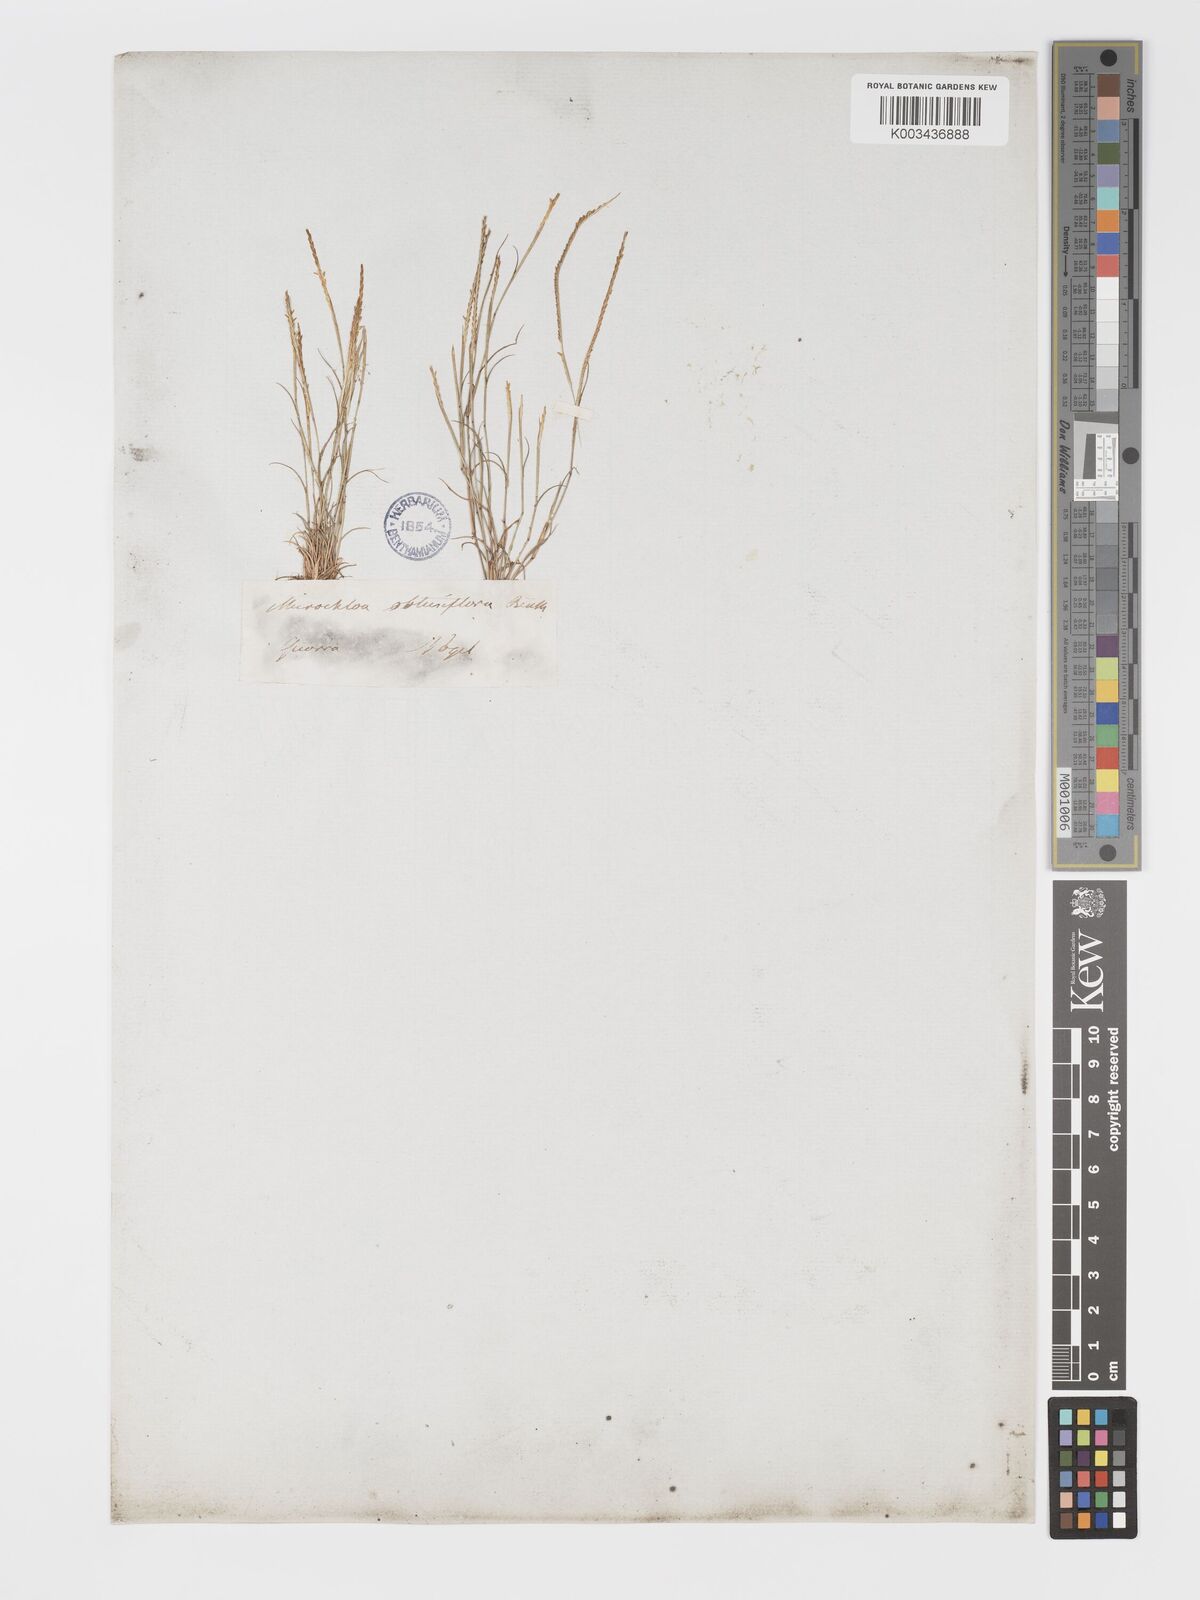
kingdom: Plantae
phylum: Tracheophyta
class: Liliopsida
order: Poales
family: Poaceae
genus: Micrachne
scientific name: Micrachne obtusiflora
